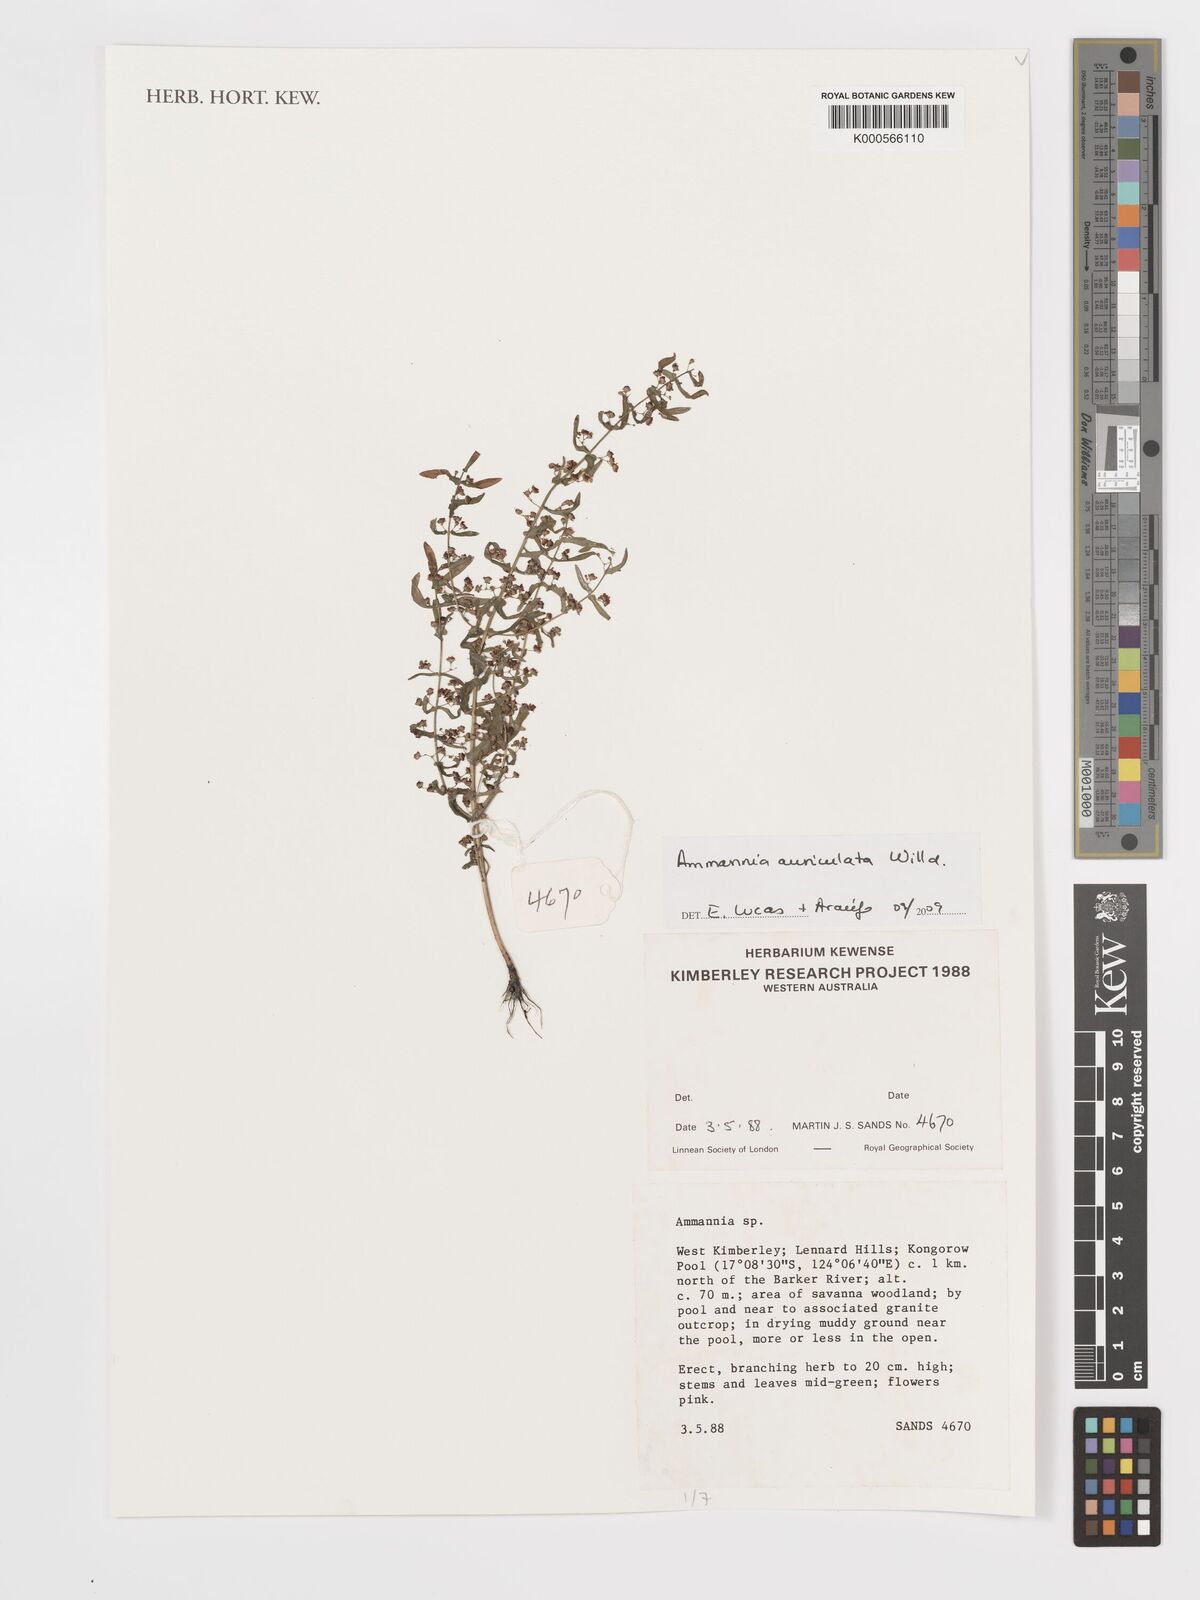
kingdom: Plantae
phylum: Tracheophyta
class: Magnoliopsida
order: Myrtales
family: Lythraceae
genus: Ammannia
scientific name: Ammannia auriculata
